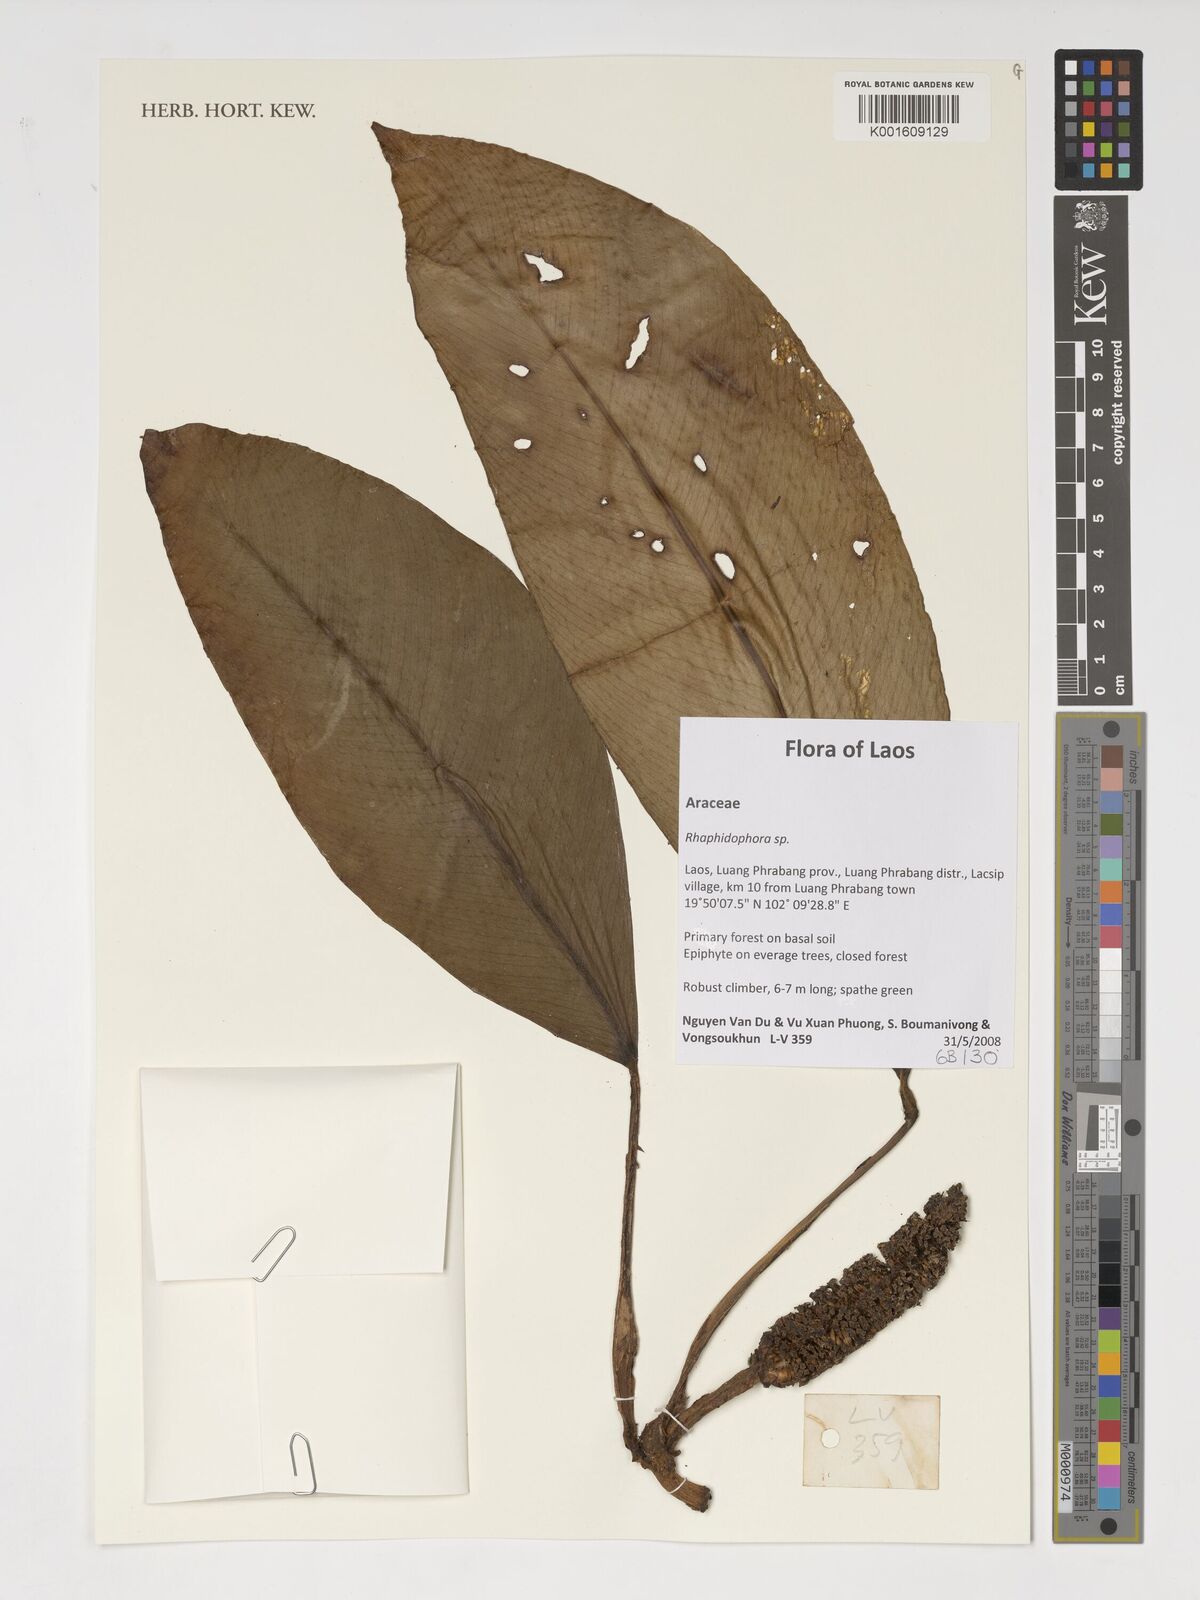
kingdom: Plantae
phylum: Tracheophyta
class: Liliopsida
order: Alismatales
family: Araceae
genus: Rhaphidophora
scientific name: Rhaphidophora
